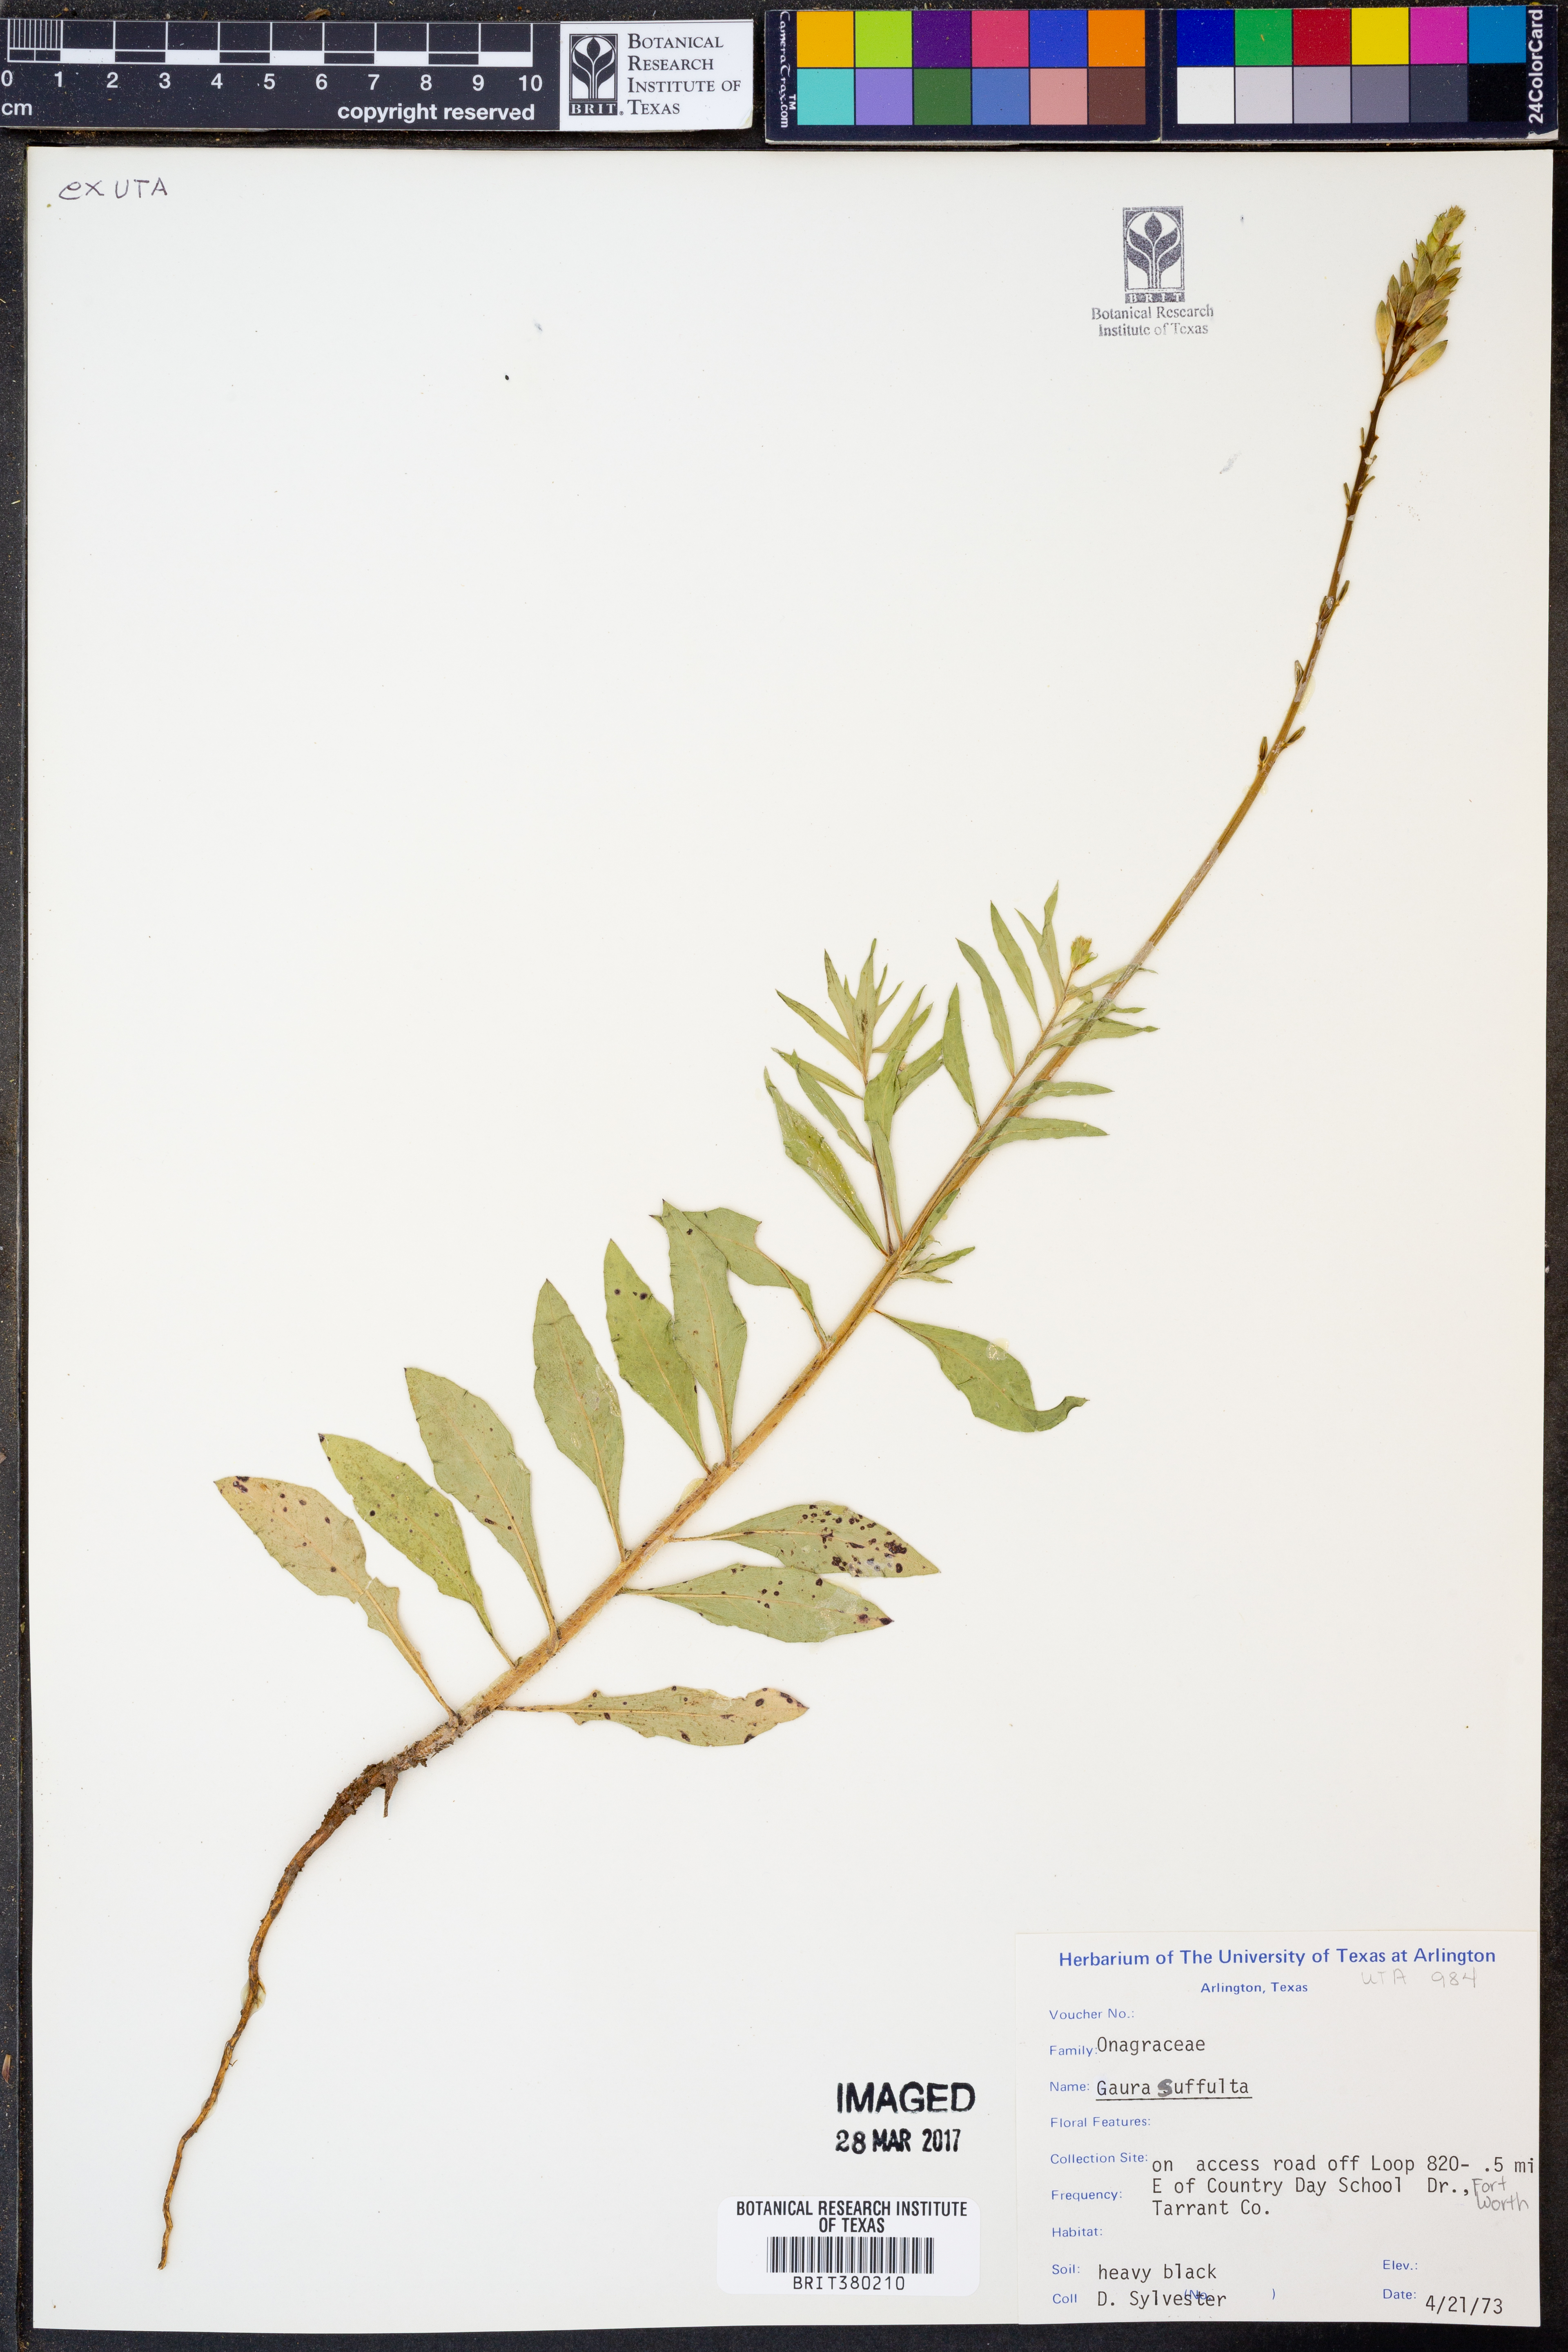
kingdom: Plantae
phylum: Tracheophyta
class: Magnoliopsida
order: Myrtales
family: Onagraceae
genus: Oenothera
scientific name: Oenothera Gaura suffulta
